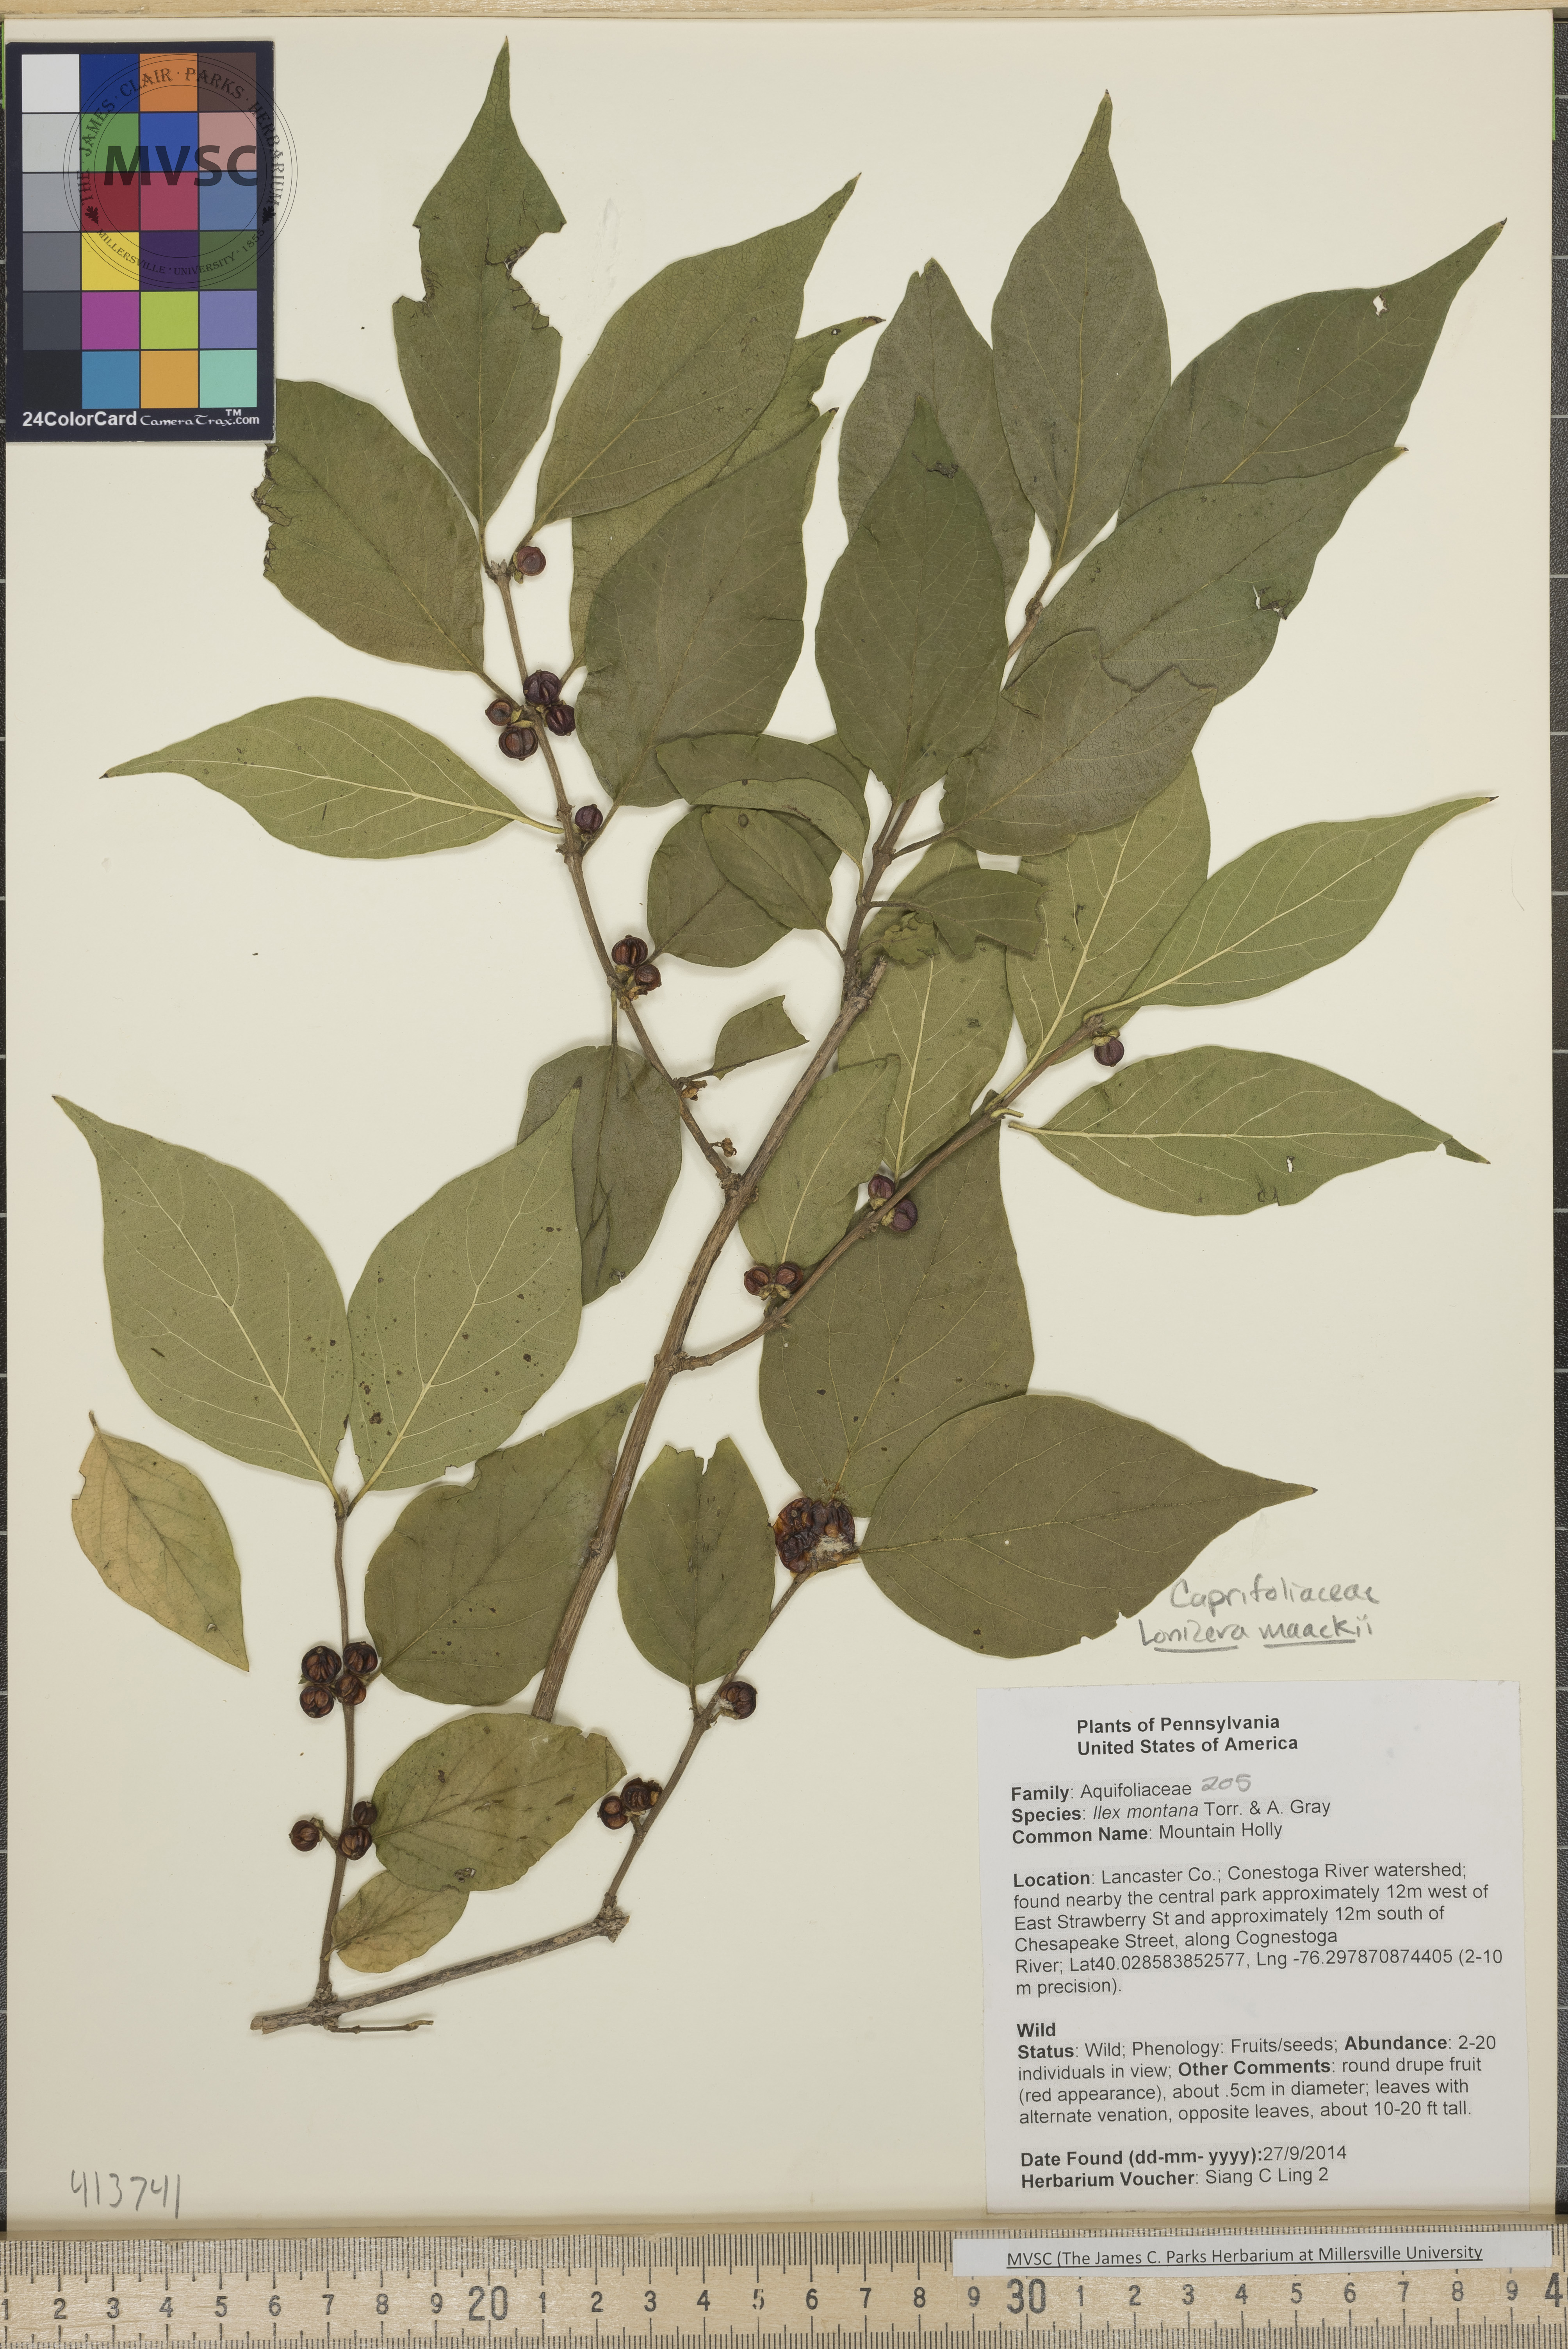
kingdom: Plantae
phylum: Tracheophyta
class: Magnoliopsida
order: Dipsacales
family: Caprifoliaceae
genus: Lonicera
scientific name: Lonicera maackii
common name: Amur honeysuckle
